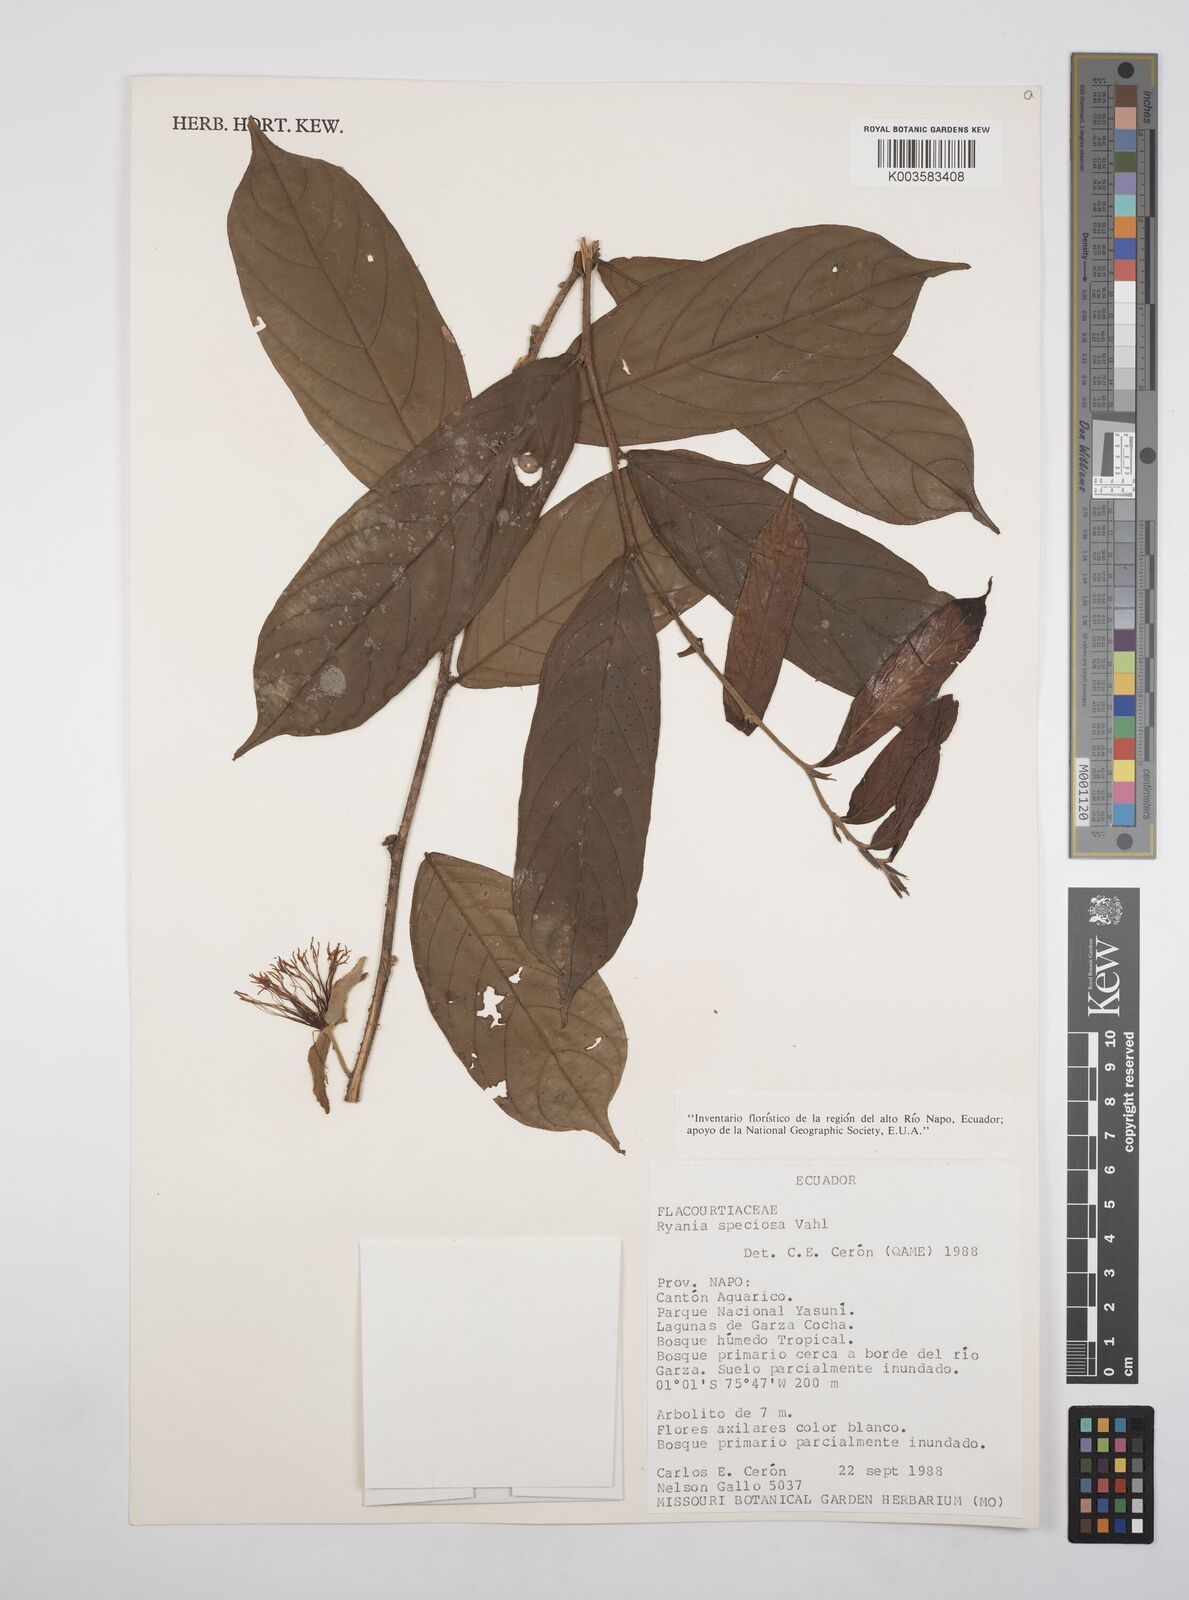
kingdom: Plantae
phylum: Tracheophyta
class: Magnoliopsida
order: Malpighiales
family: Salicaceae
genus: Ryania
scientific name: Ryania speciosa
